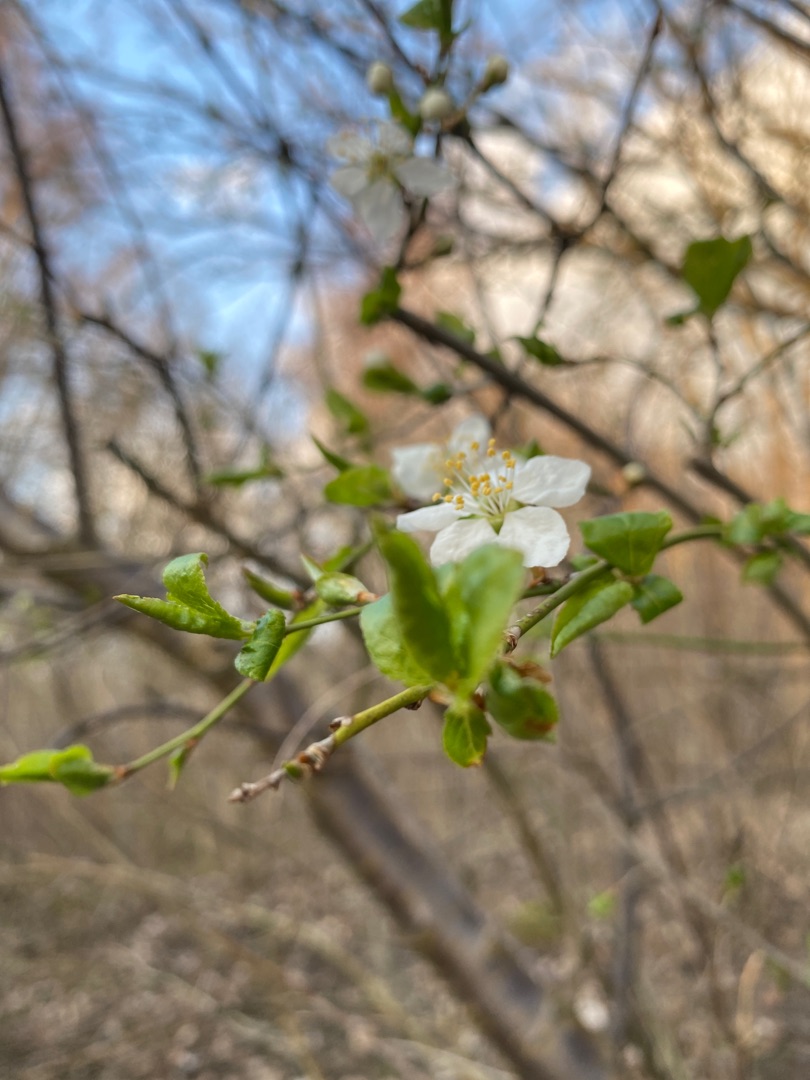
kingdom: Plantae
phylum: Tracheophyta
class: Magnoliopsida
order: Rosales
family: Rosaceae
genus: Prunus
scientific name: Prunus cerasifera
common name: Mirabel
